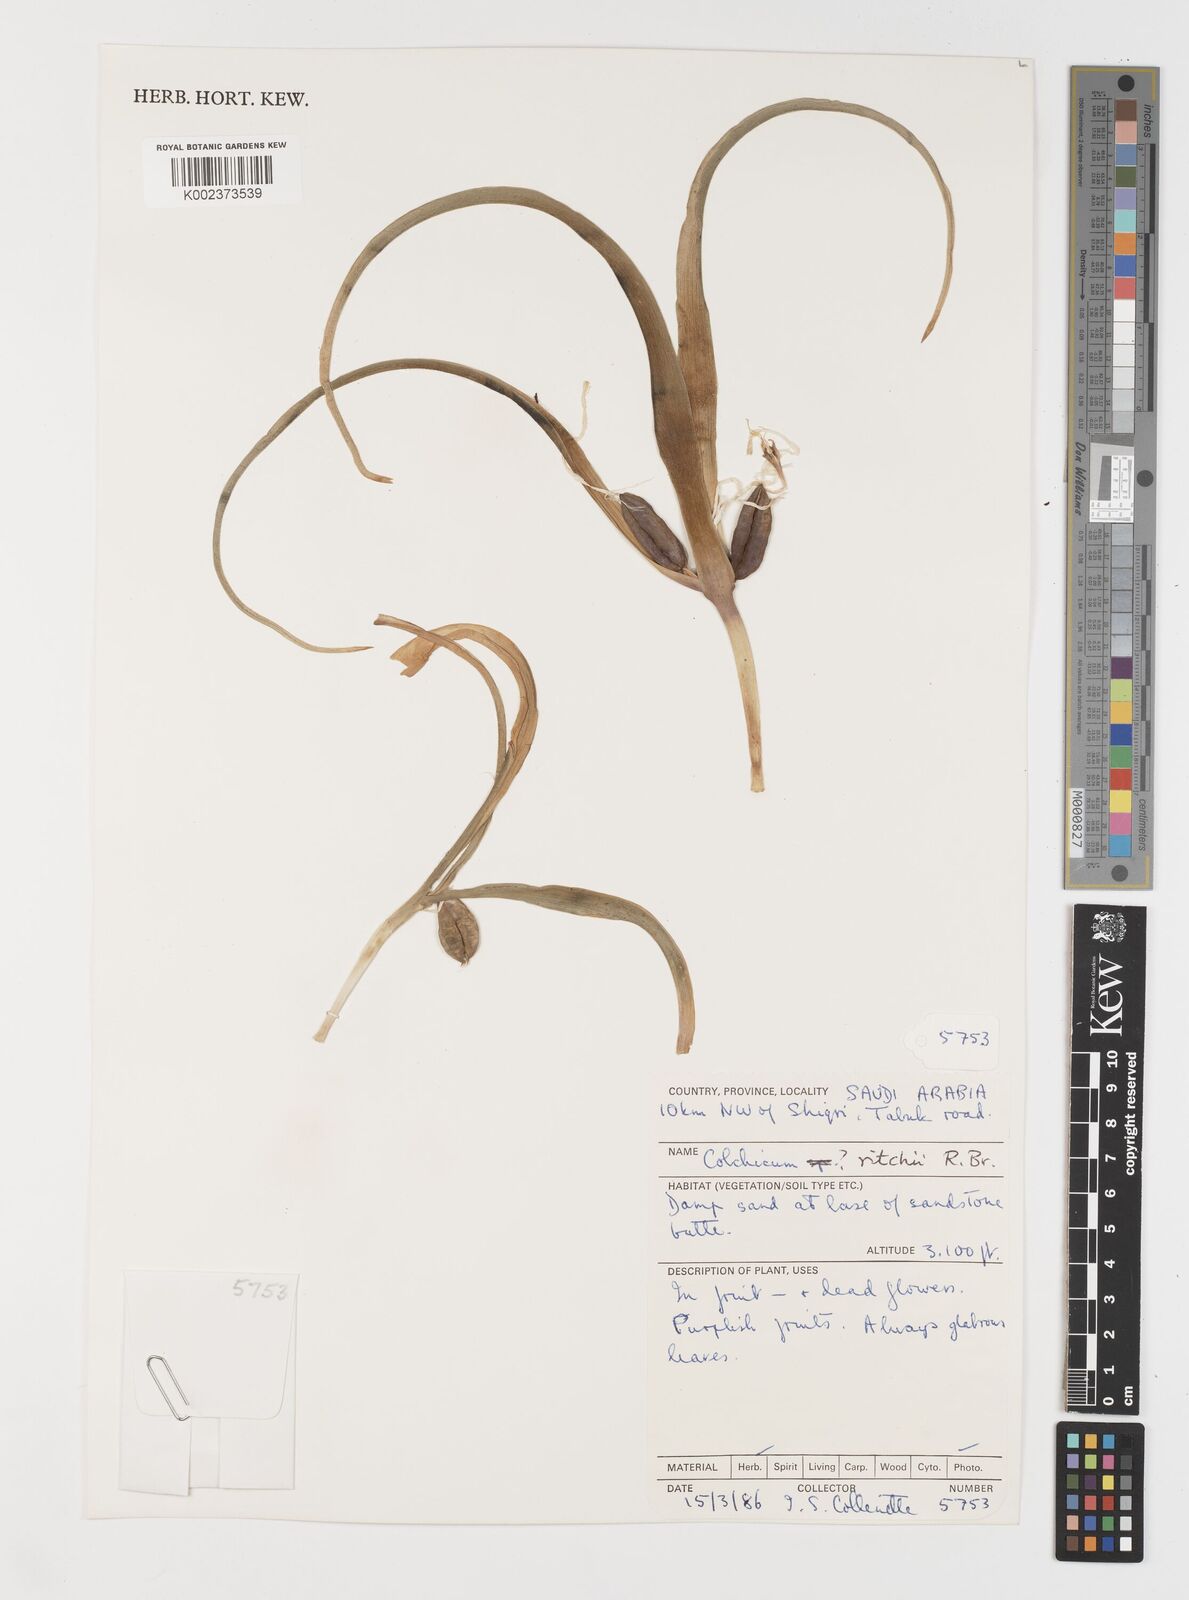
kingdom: Plantae
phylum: Tracheophyta
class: Liliopsida
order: Liliales
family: Colchicaceae
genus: Colchicum
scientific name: Colchicum ritchii
